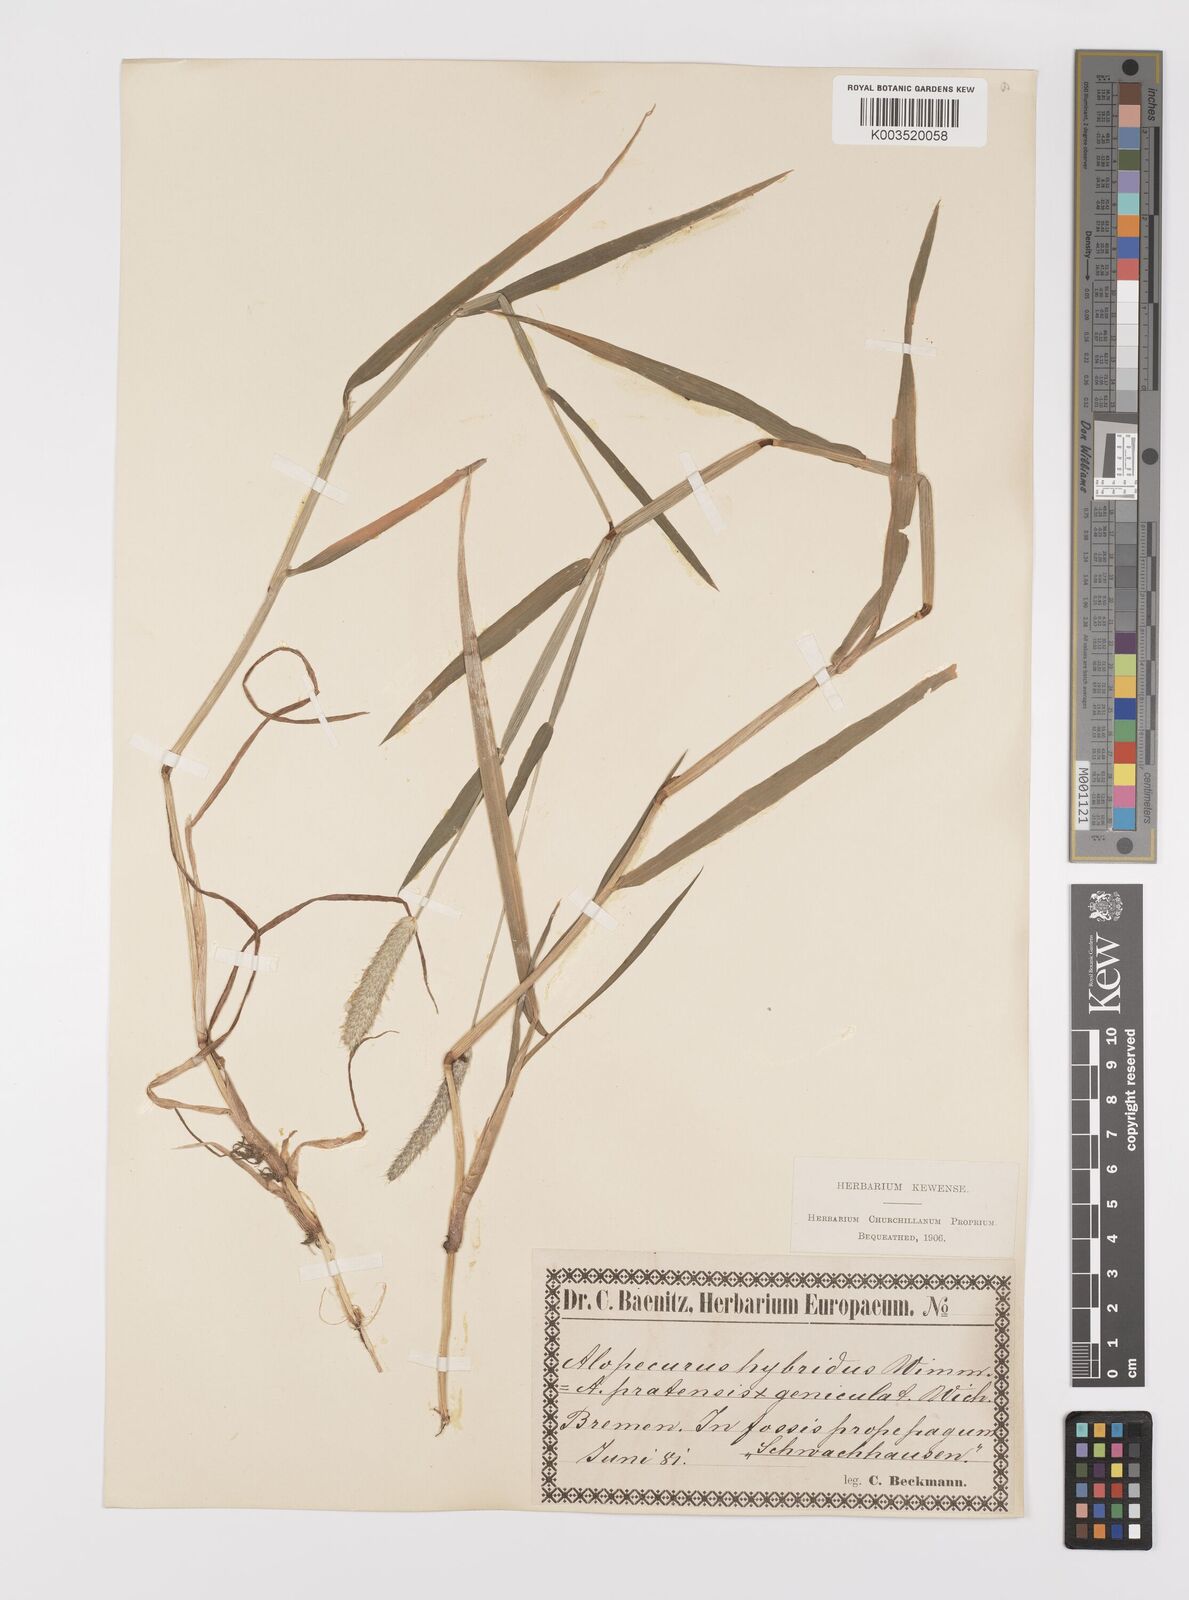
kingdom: Plantae
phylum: Tracheophyta
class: Liliopsida
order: Poales
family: Poaceae
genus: Alopecurus
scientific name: Alopecurus brachystylus
